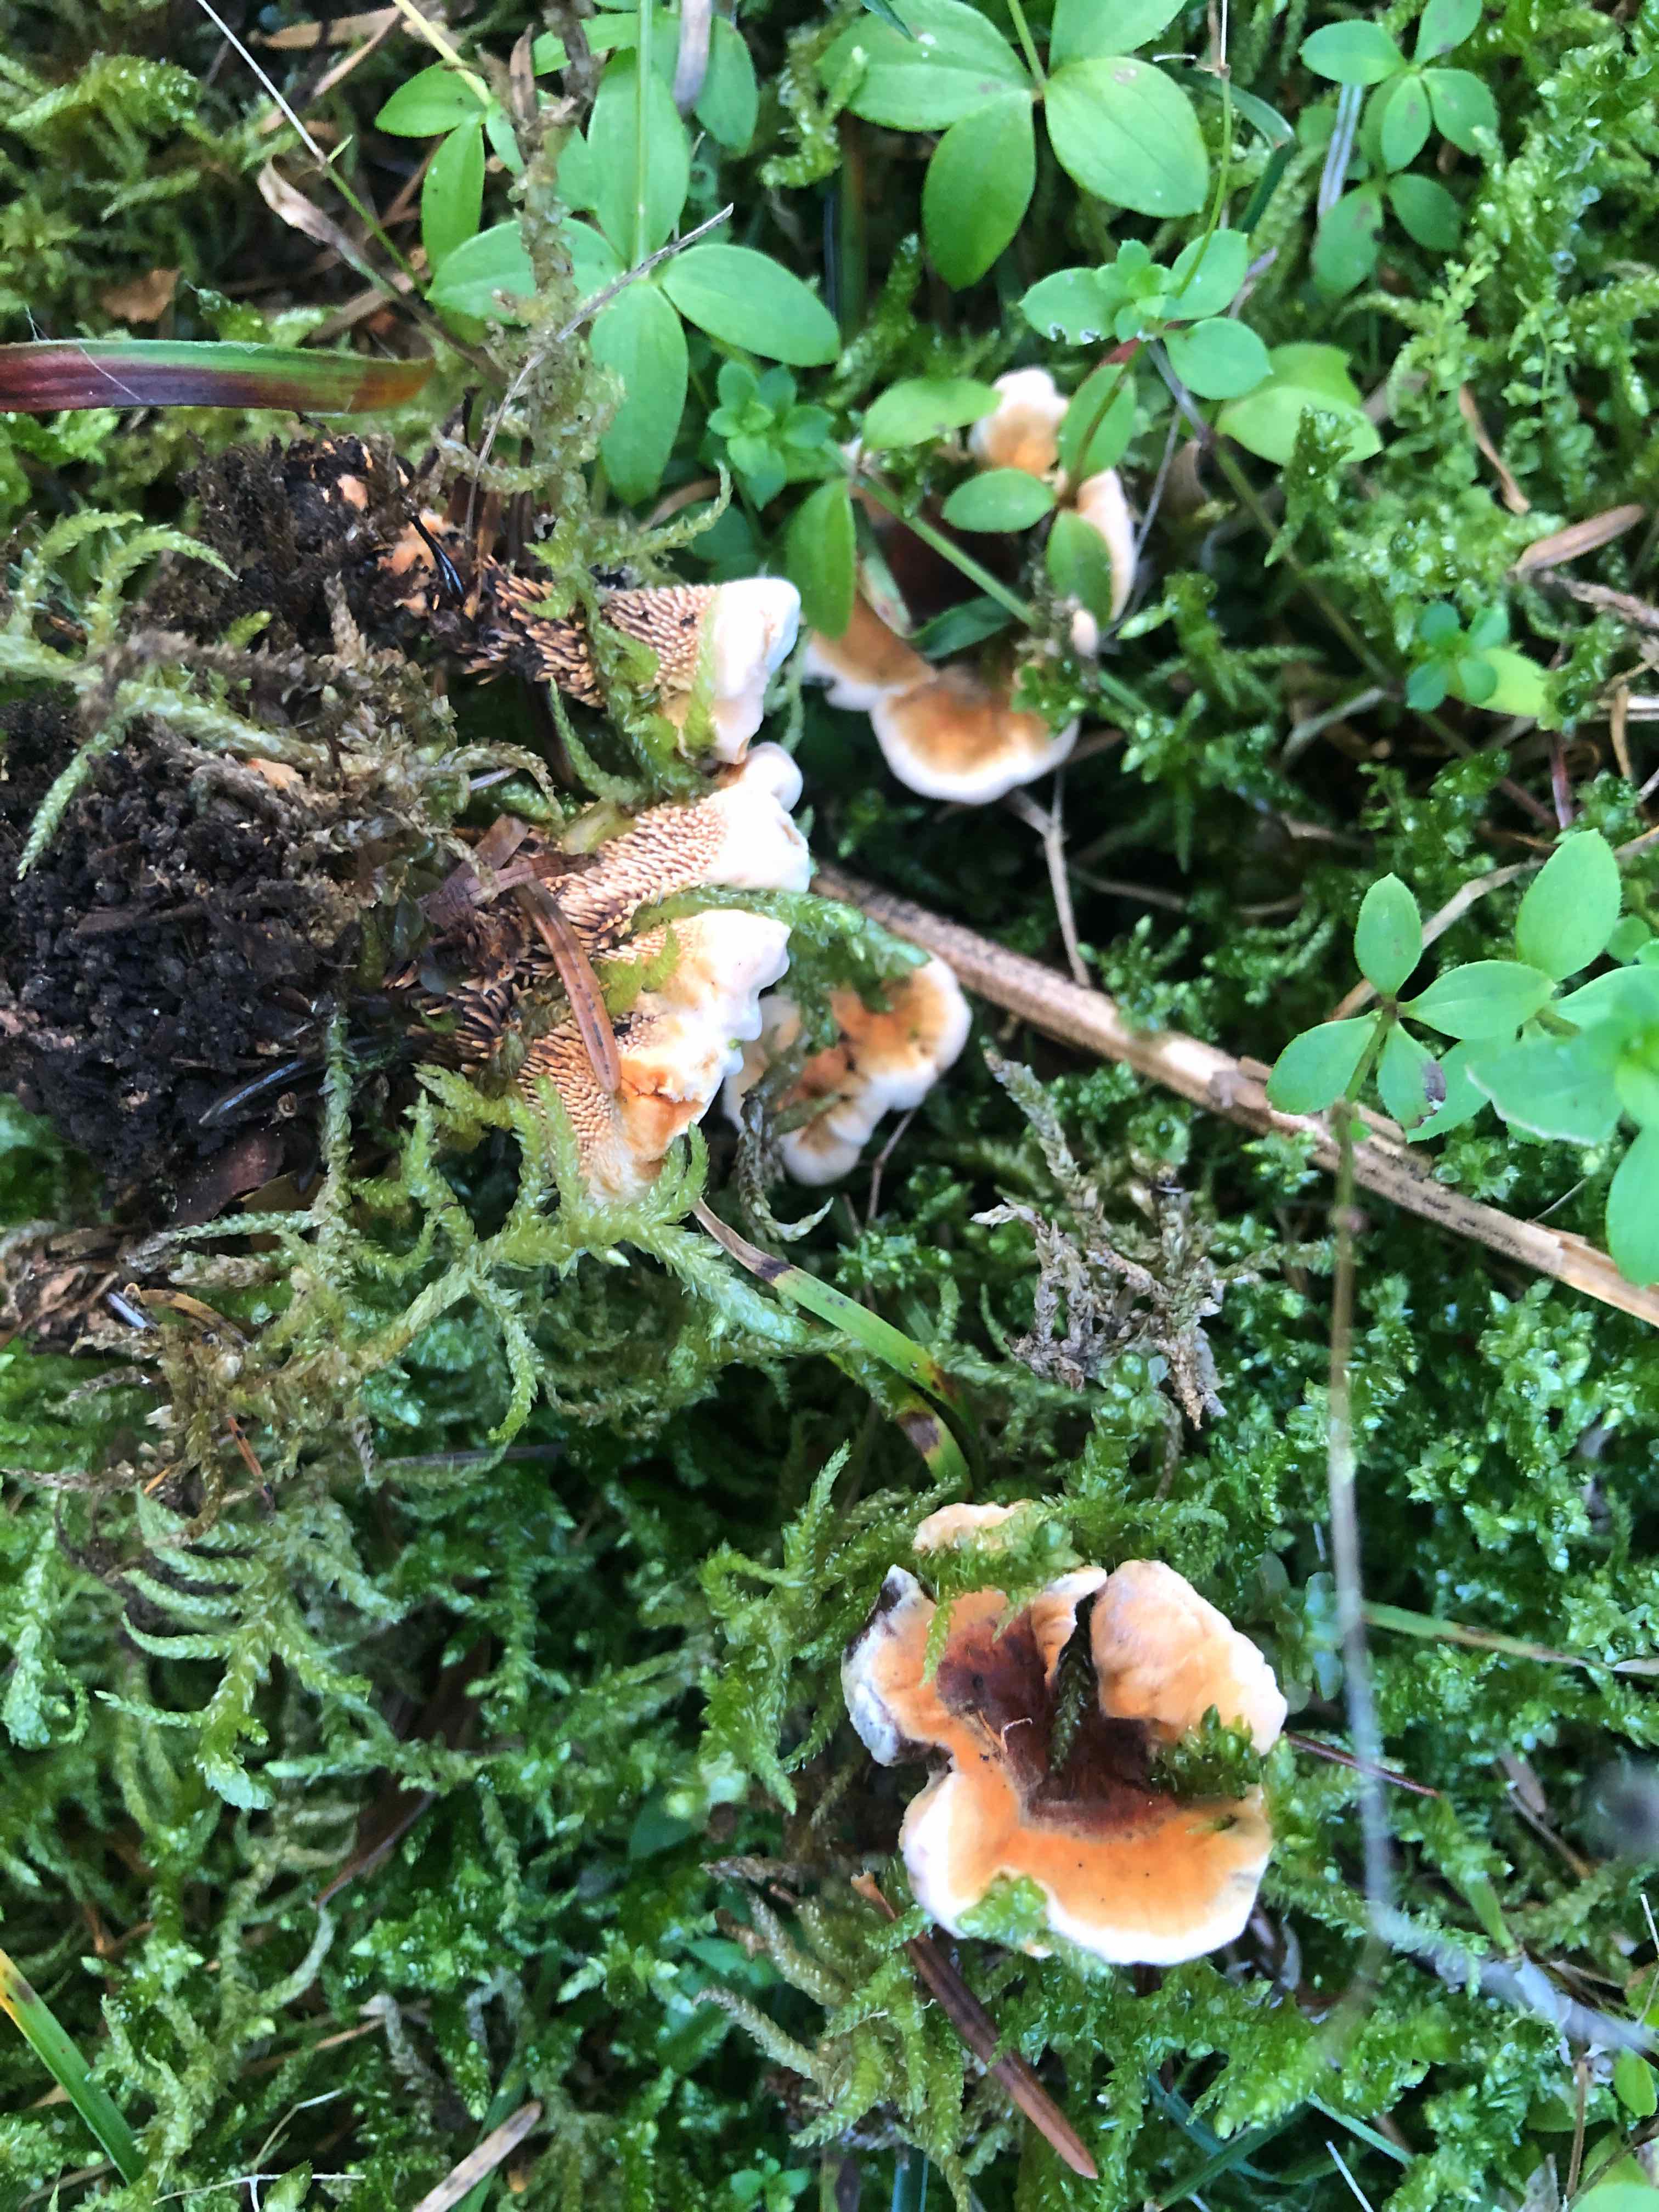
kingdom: Fungi
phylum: Basidiomycota
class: Agaricomycetes
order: Thelephorales
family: Bankeraceae
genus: Hydnellum
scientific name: Hydnellum auratile
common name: teglrød korkpigsvamp
